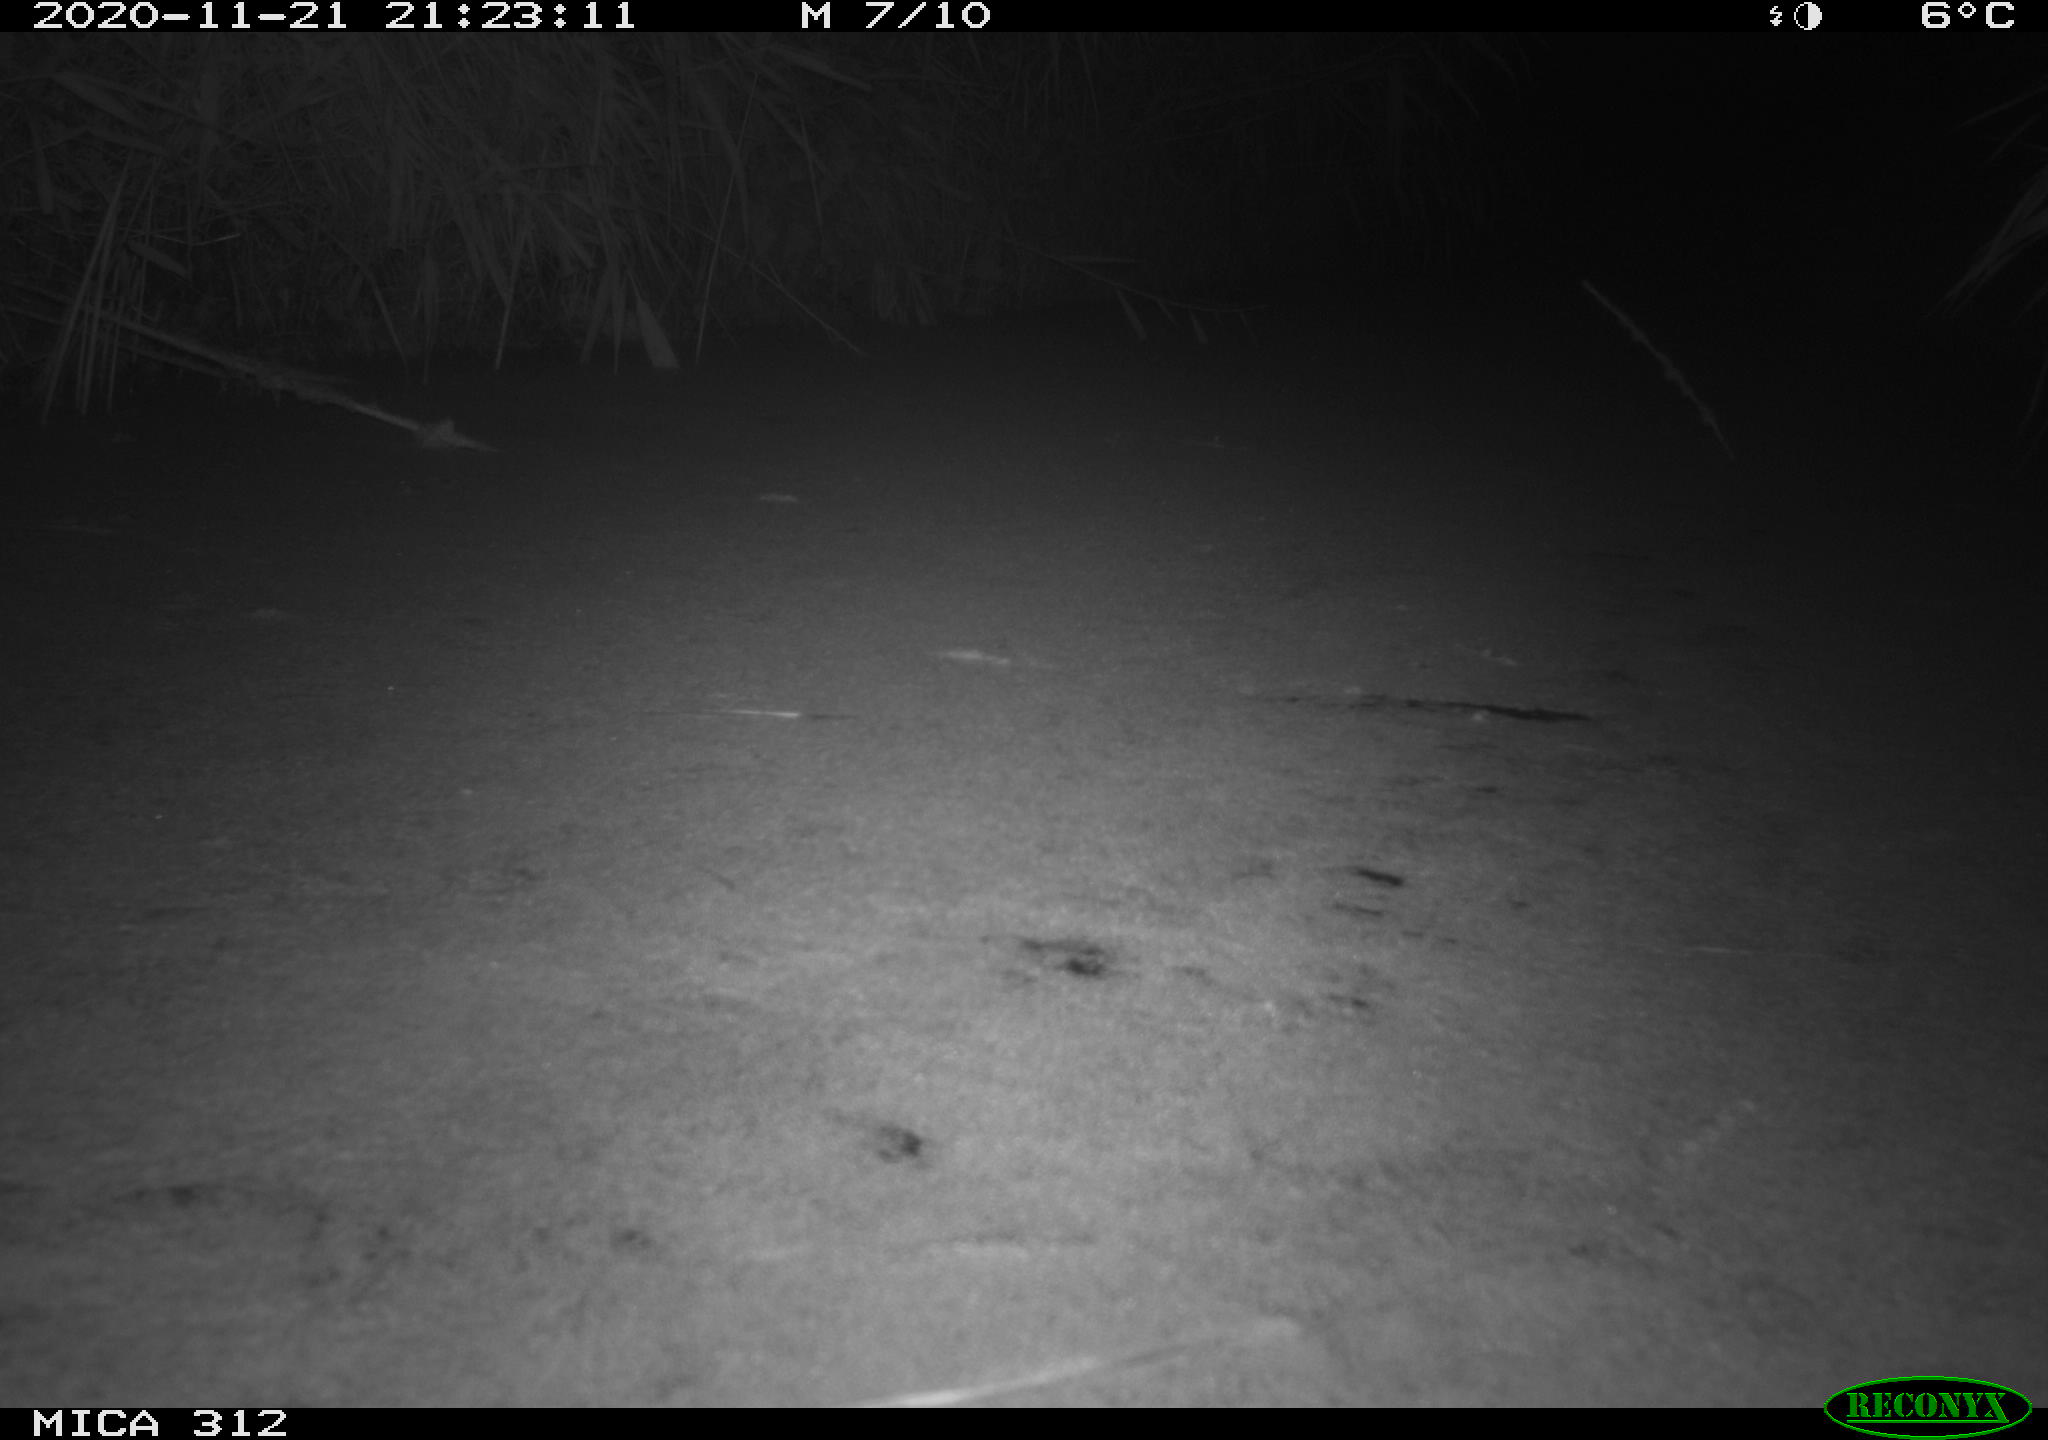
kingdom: Animalia
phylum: Chordata
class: Mammalia
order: Rodentia
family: Muridae
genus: Rattus
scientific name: Rattus norvegicus
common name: Brown rat
